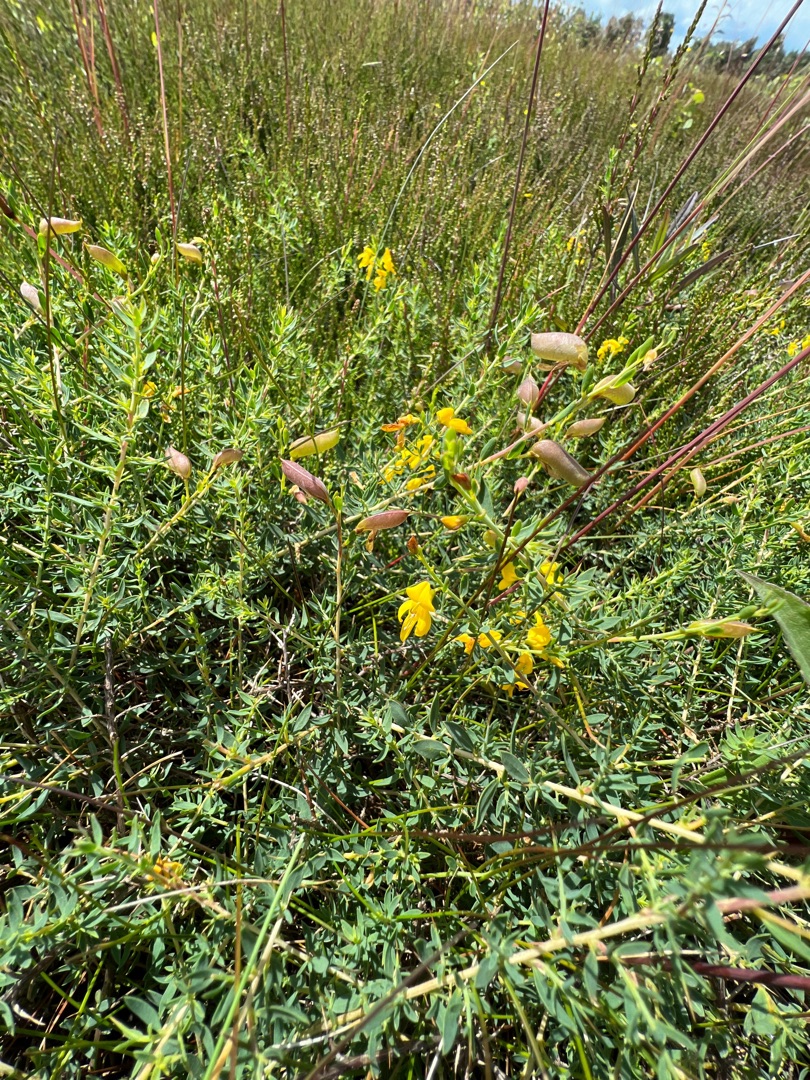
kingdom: Plantae
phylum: Tracheophyta
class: Magnoliopsida
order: Fabales
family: Fabaceae
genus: Genista
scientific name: Genista anglica
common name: Engelsk visse
